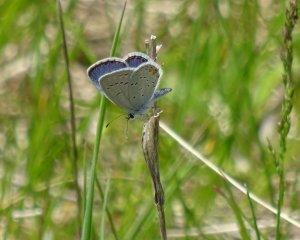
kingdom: Animalia
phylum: Arthropoda
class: Insecta
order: Lepidoptera
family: Lycaenidae
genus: Elkalyce
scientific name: Elkalyce comyntas
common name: Eastern Tailed-Blue
